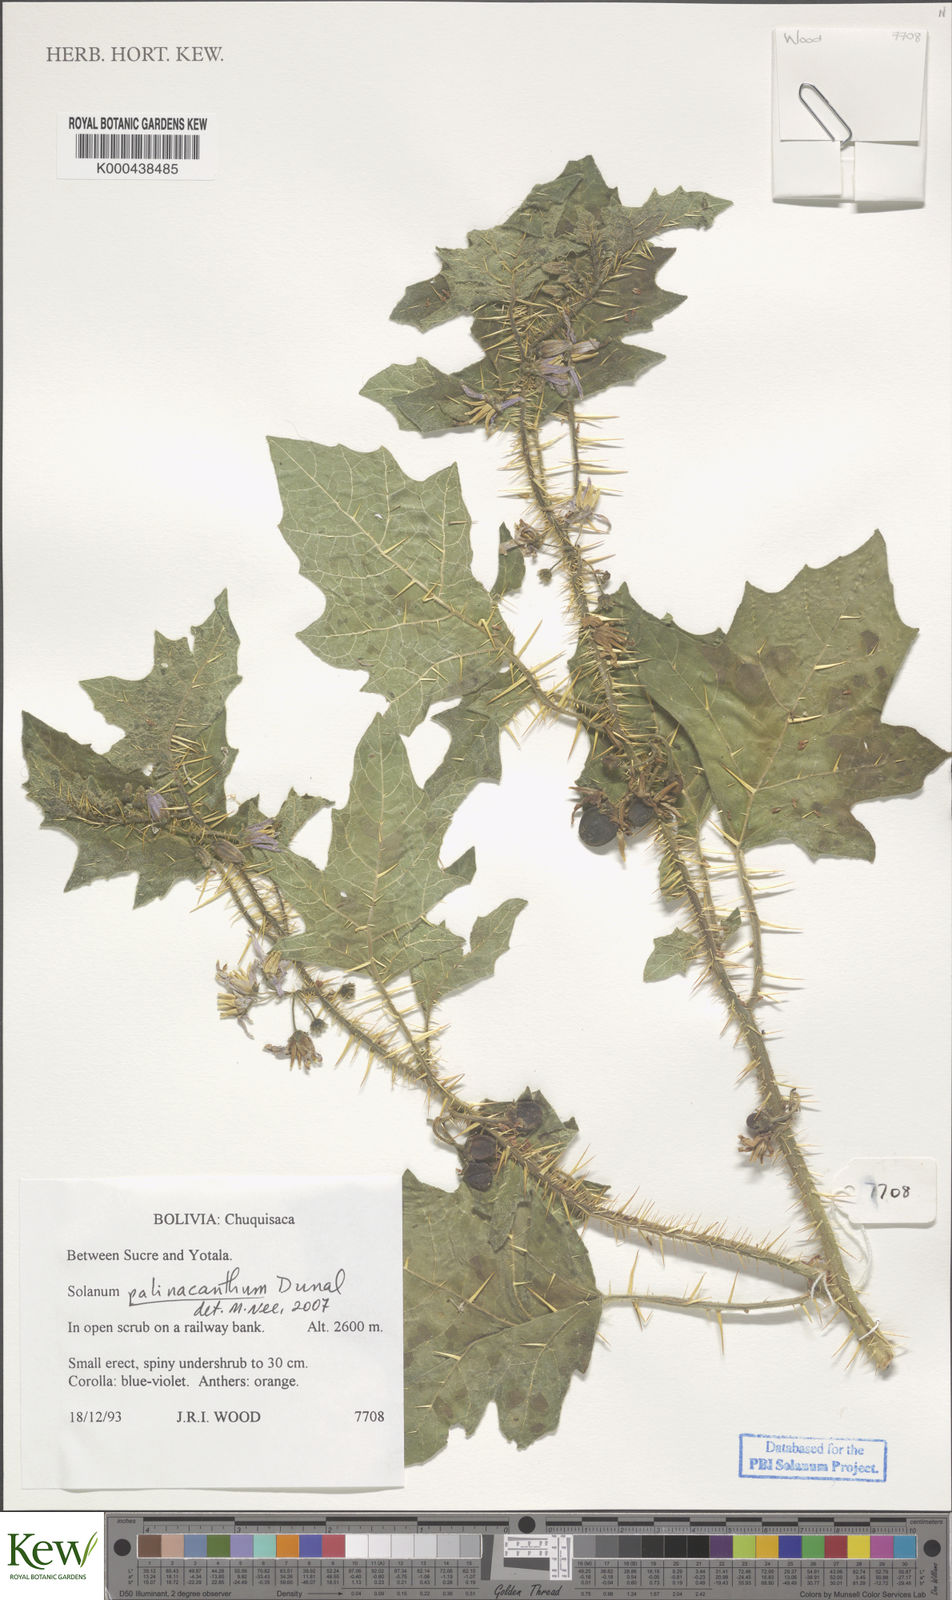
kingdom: Plantae
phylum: Tracheophyta
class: Magnoliopsida
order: Solanales
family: Solanaceae
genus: Solanum
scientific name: Solanum palinacanthum
